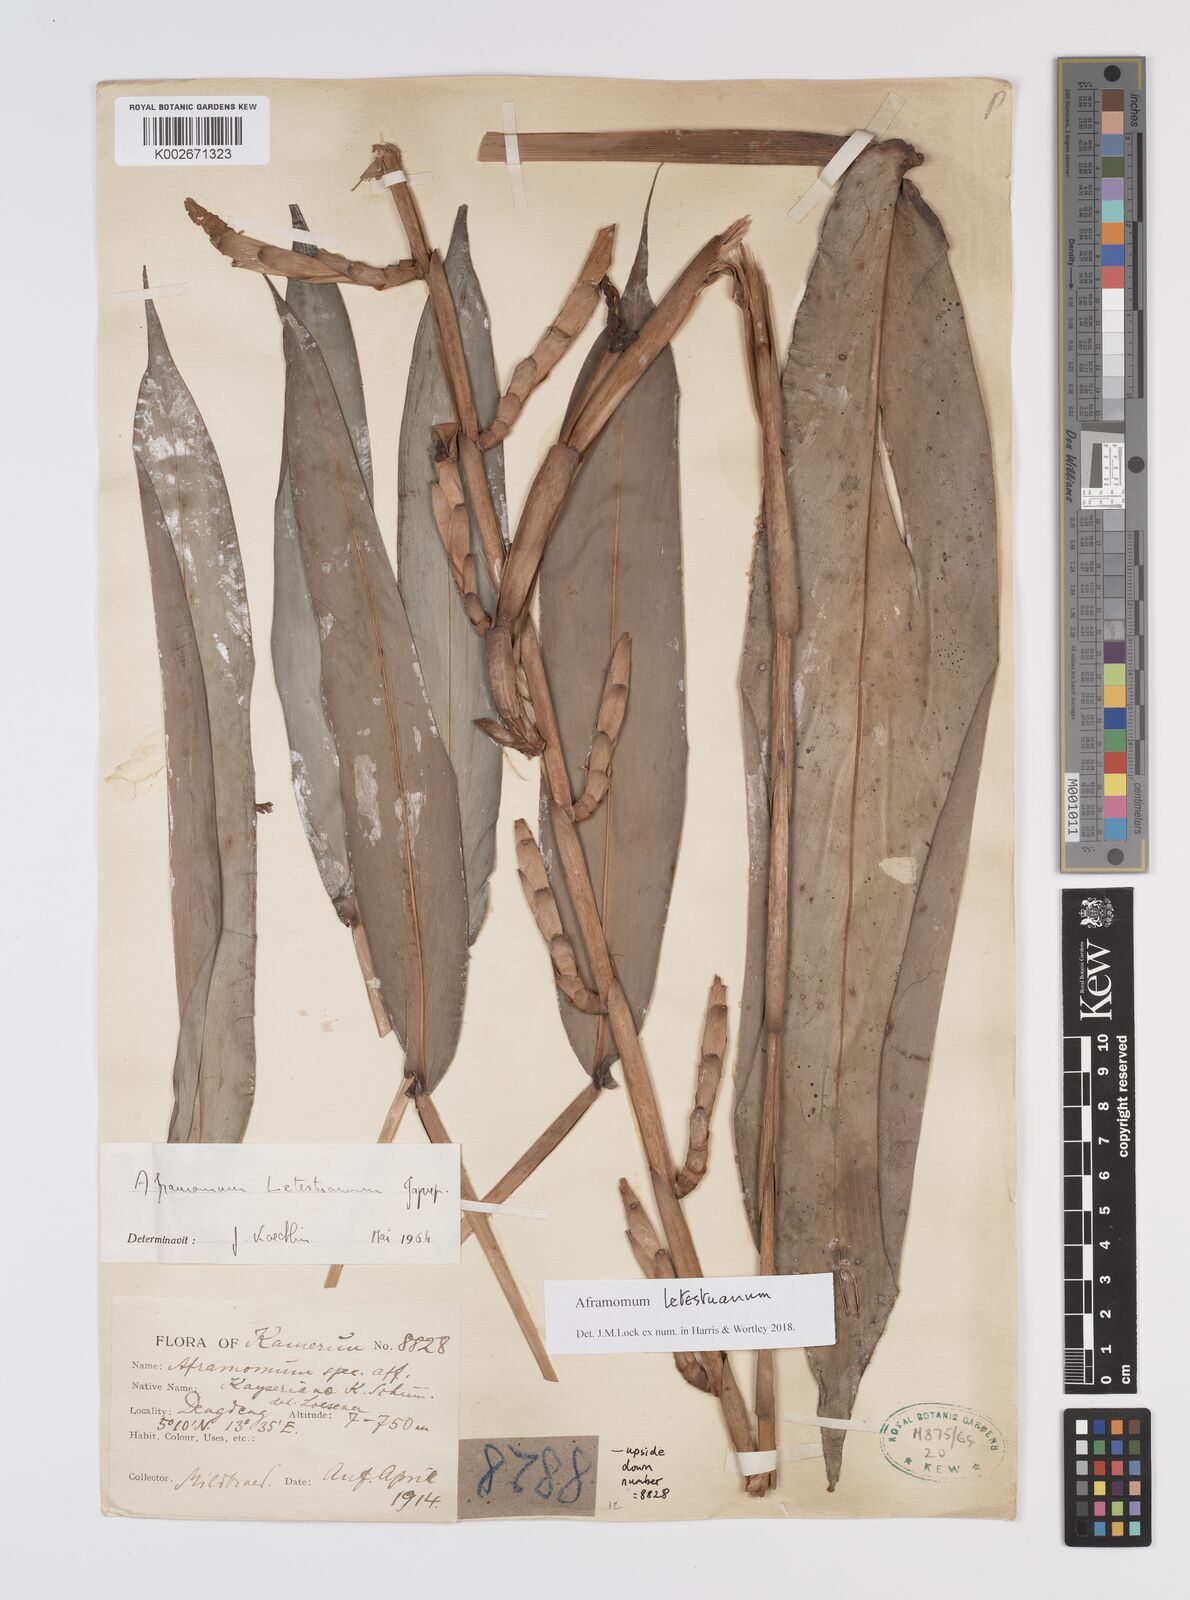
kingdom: Plantae
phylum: Tracheophyta
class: Liliopsida
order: Zingiberales
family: Zingiberaceae
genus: Aframomum
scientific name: Aframomum letestuanum
